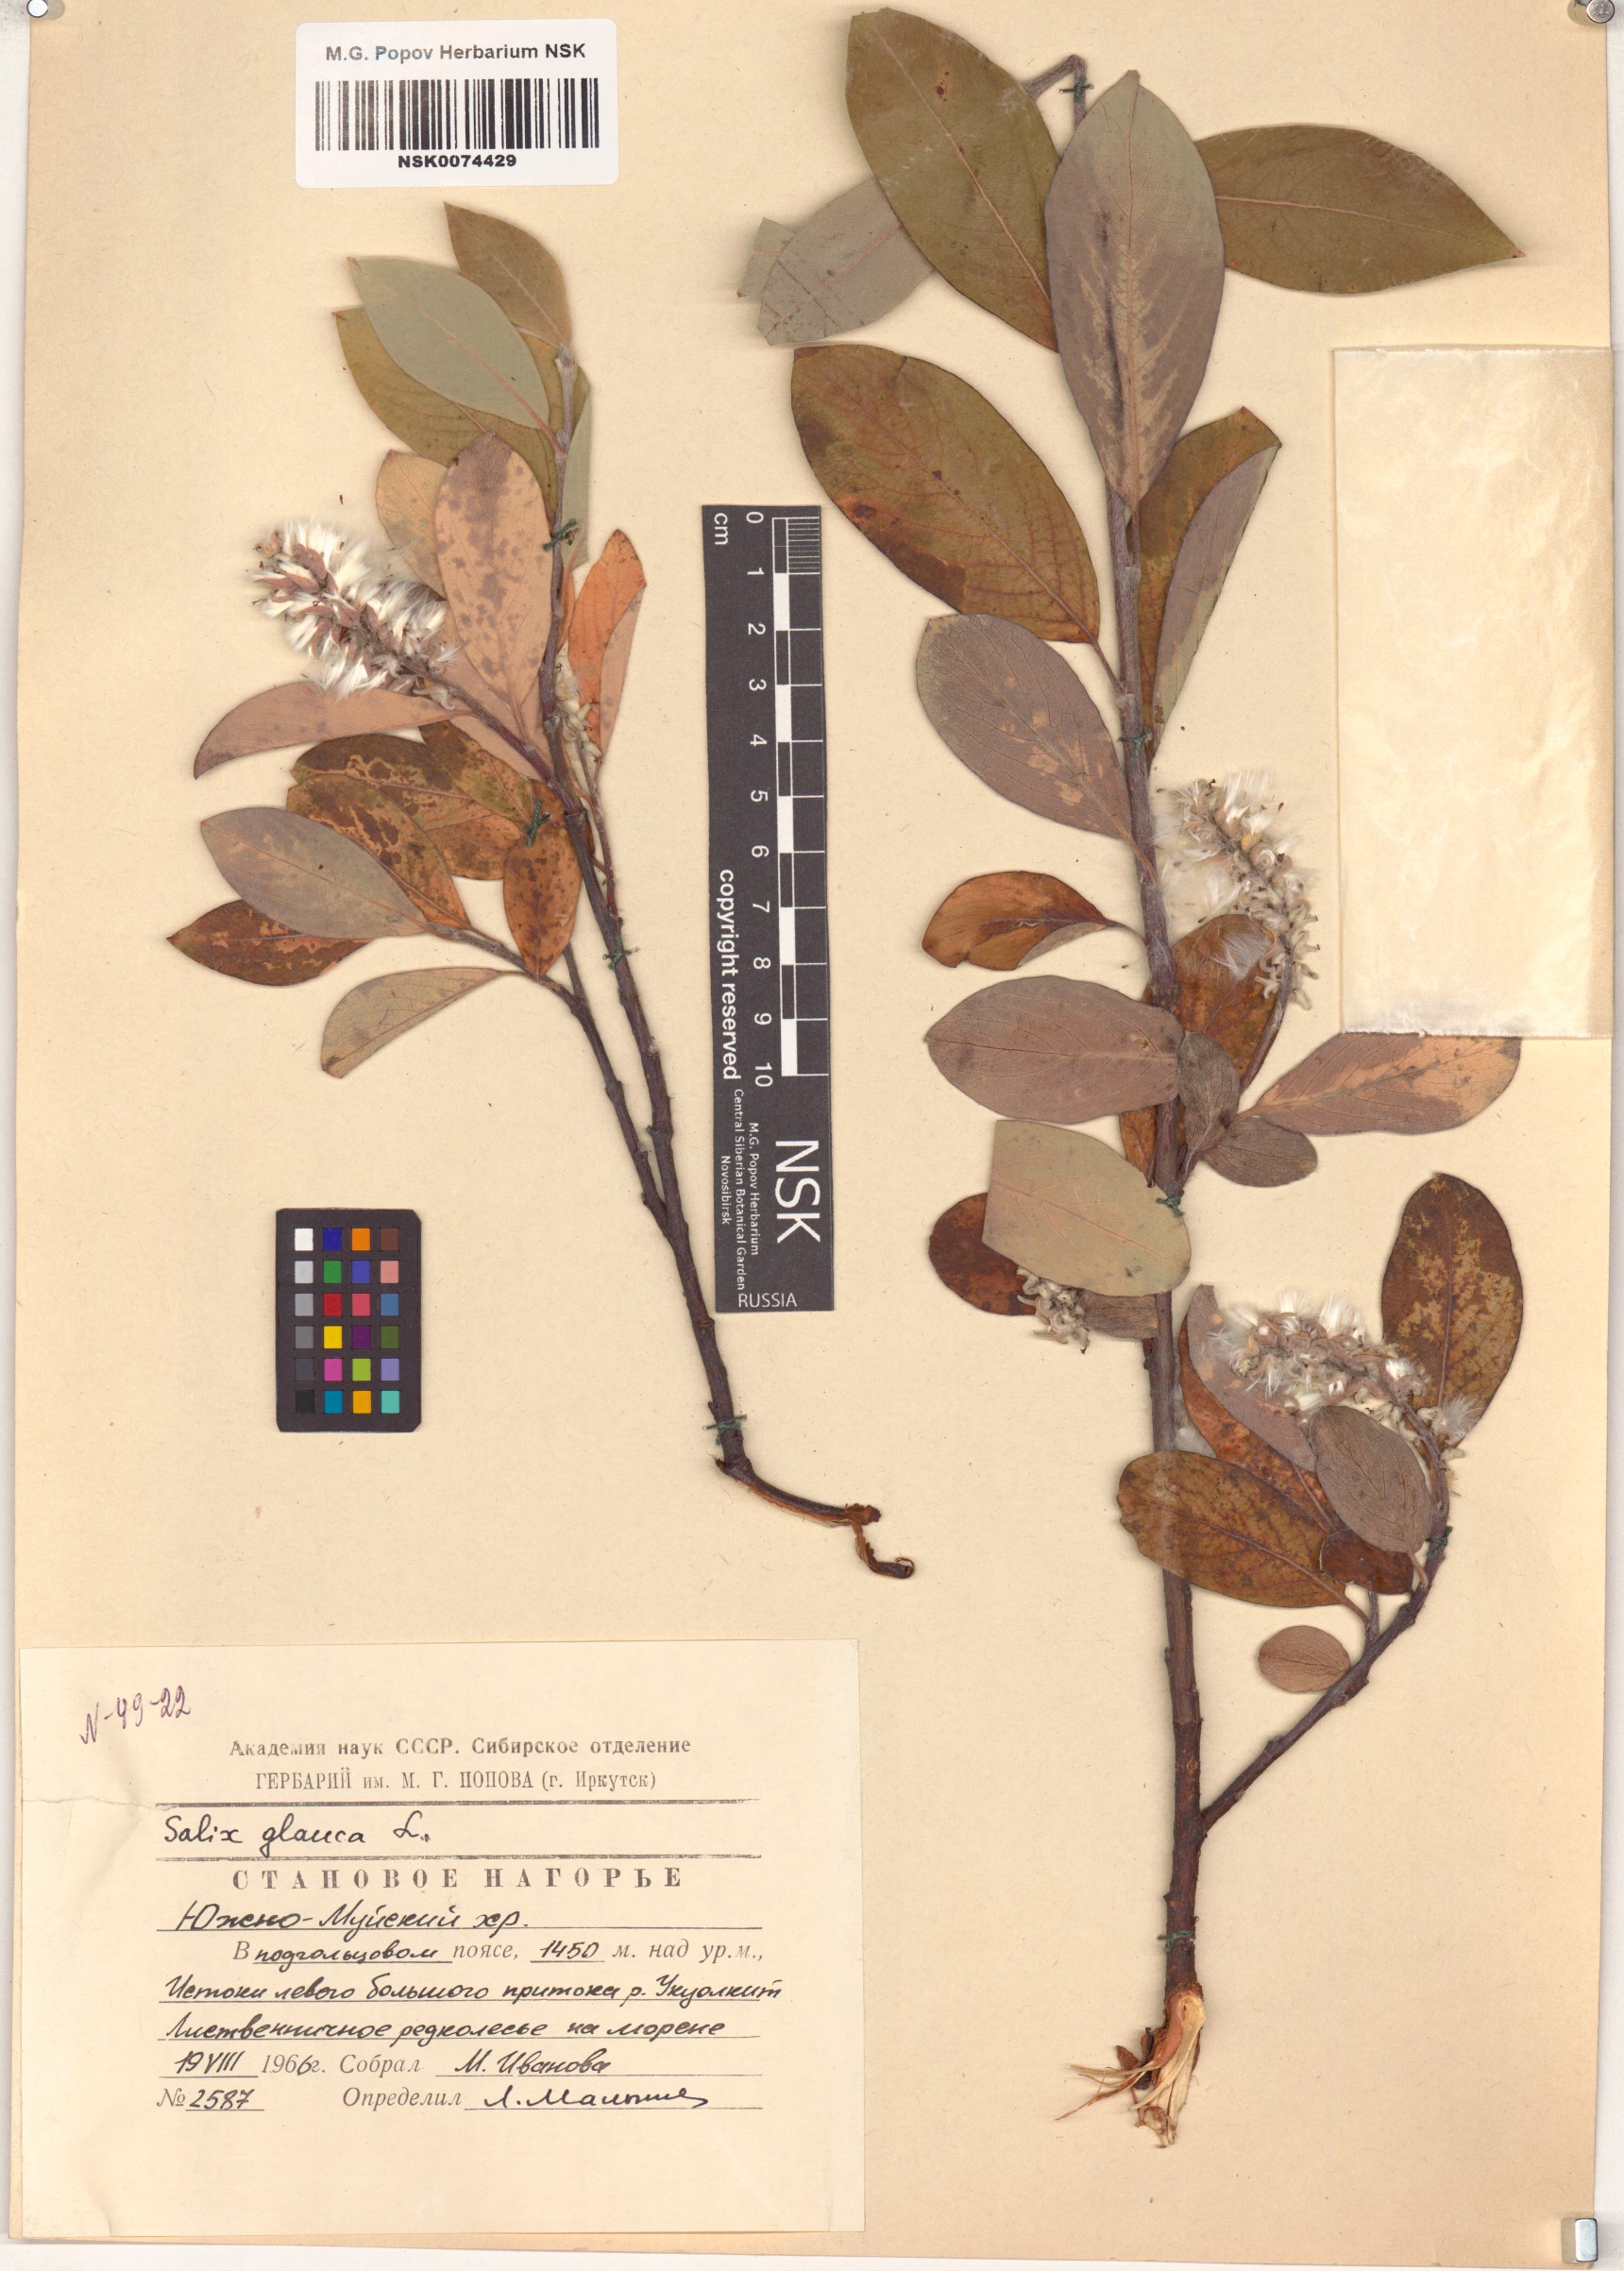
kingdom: Plantae
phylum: Tracheophyta
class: Magnoliopsida
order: Malpighiales
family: Salicaceae
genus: Salix
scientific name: Salix glauca
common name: Glaucous willow
